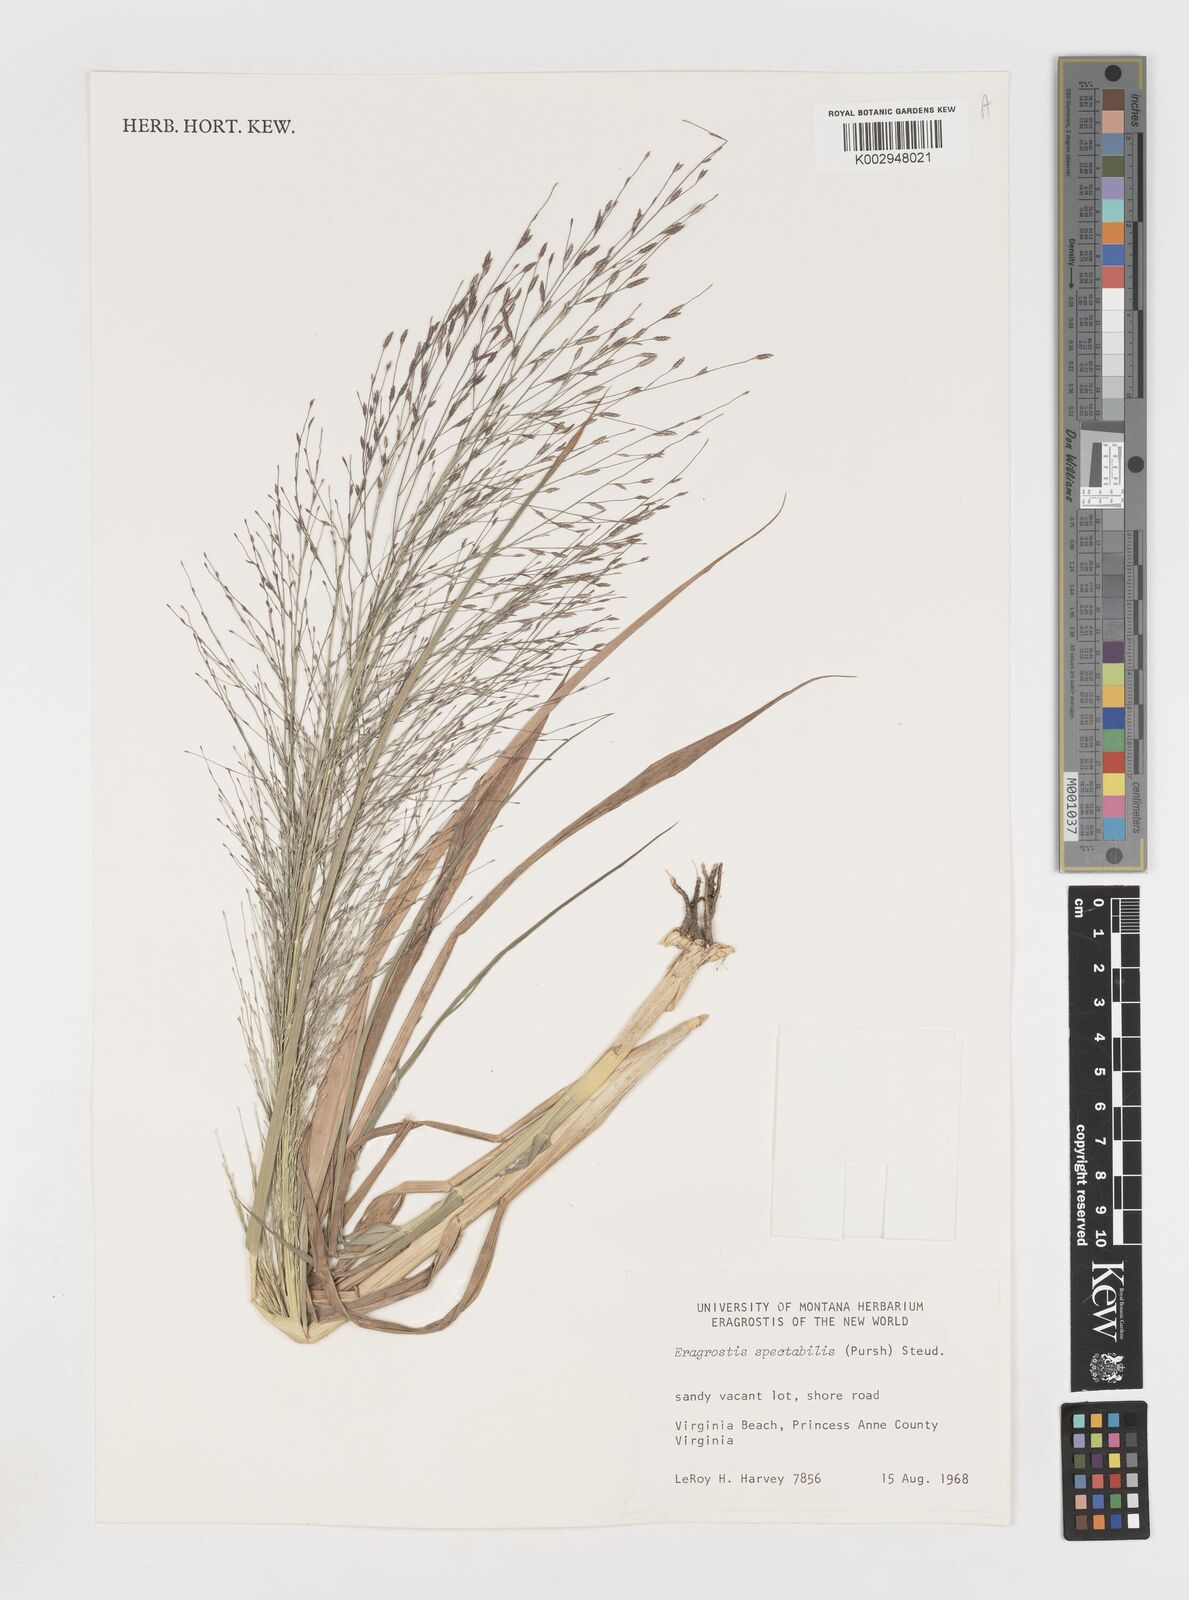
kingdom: Plantae
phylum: Tracheophyta
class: Liliopsida
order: Poales
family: Poaceae
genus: Eragrostis
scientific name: Eragrostis spectabilis
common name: Petticoat-climber
